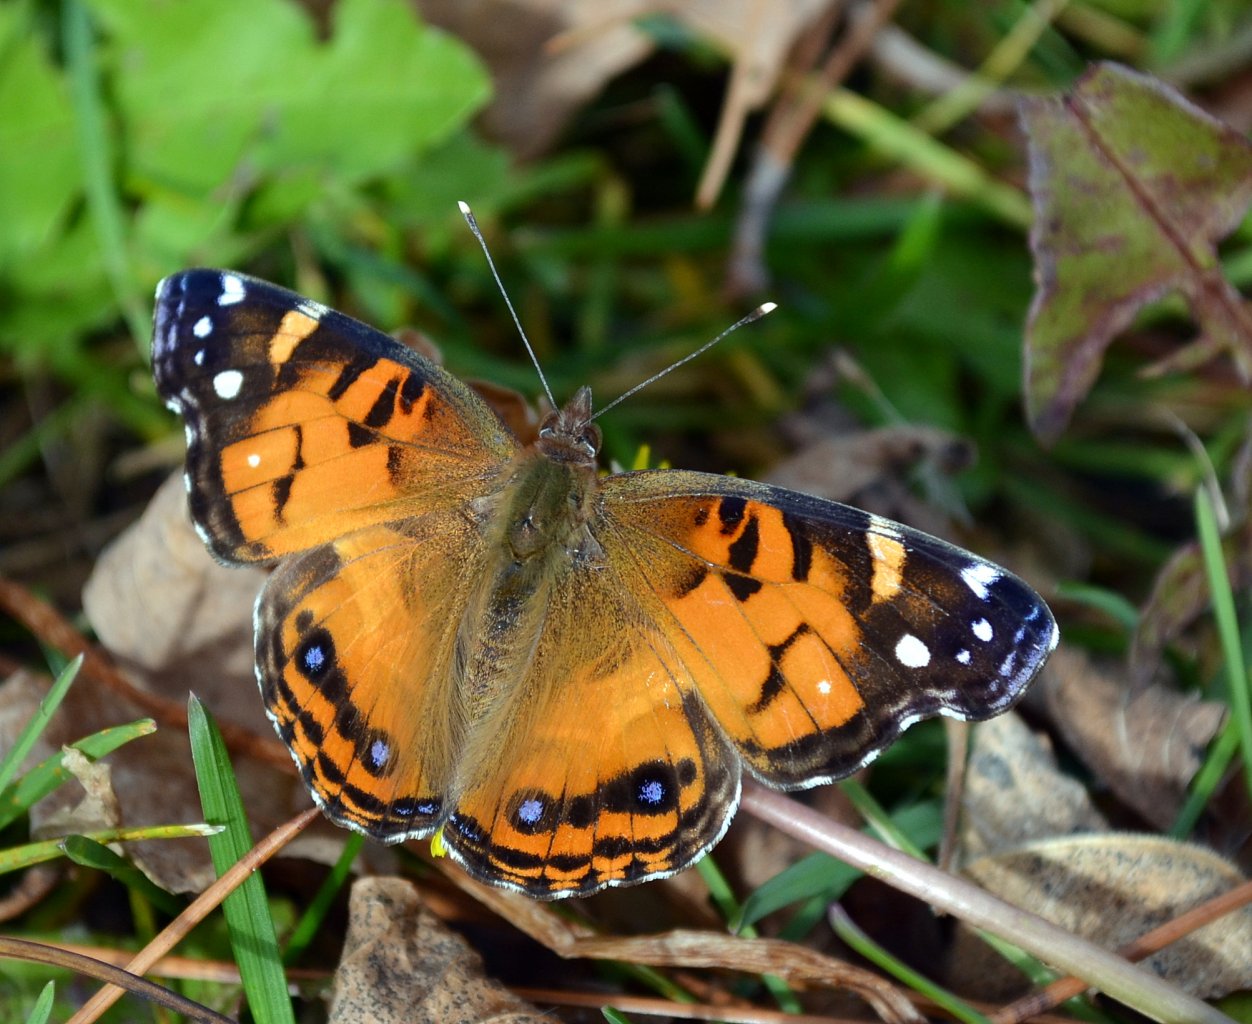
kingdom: Animalia
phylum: Arthropoda
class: Insecta
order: Lepidoptera
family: Nymphalidae
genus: Vanessa
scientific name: Vanessa virginiensis
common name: American Lady
